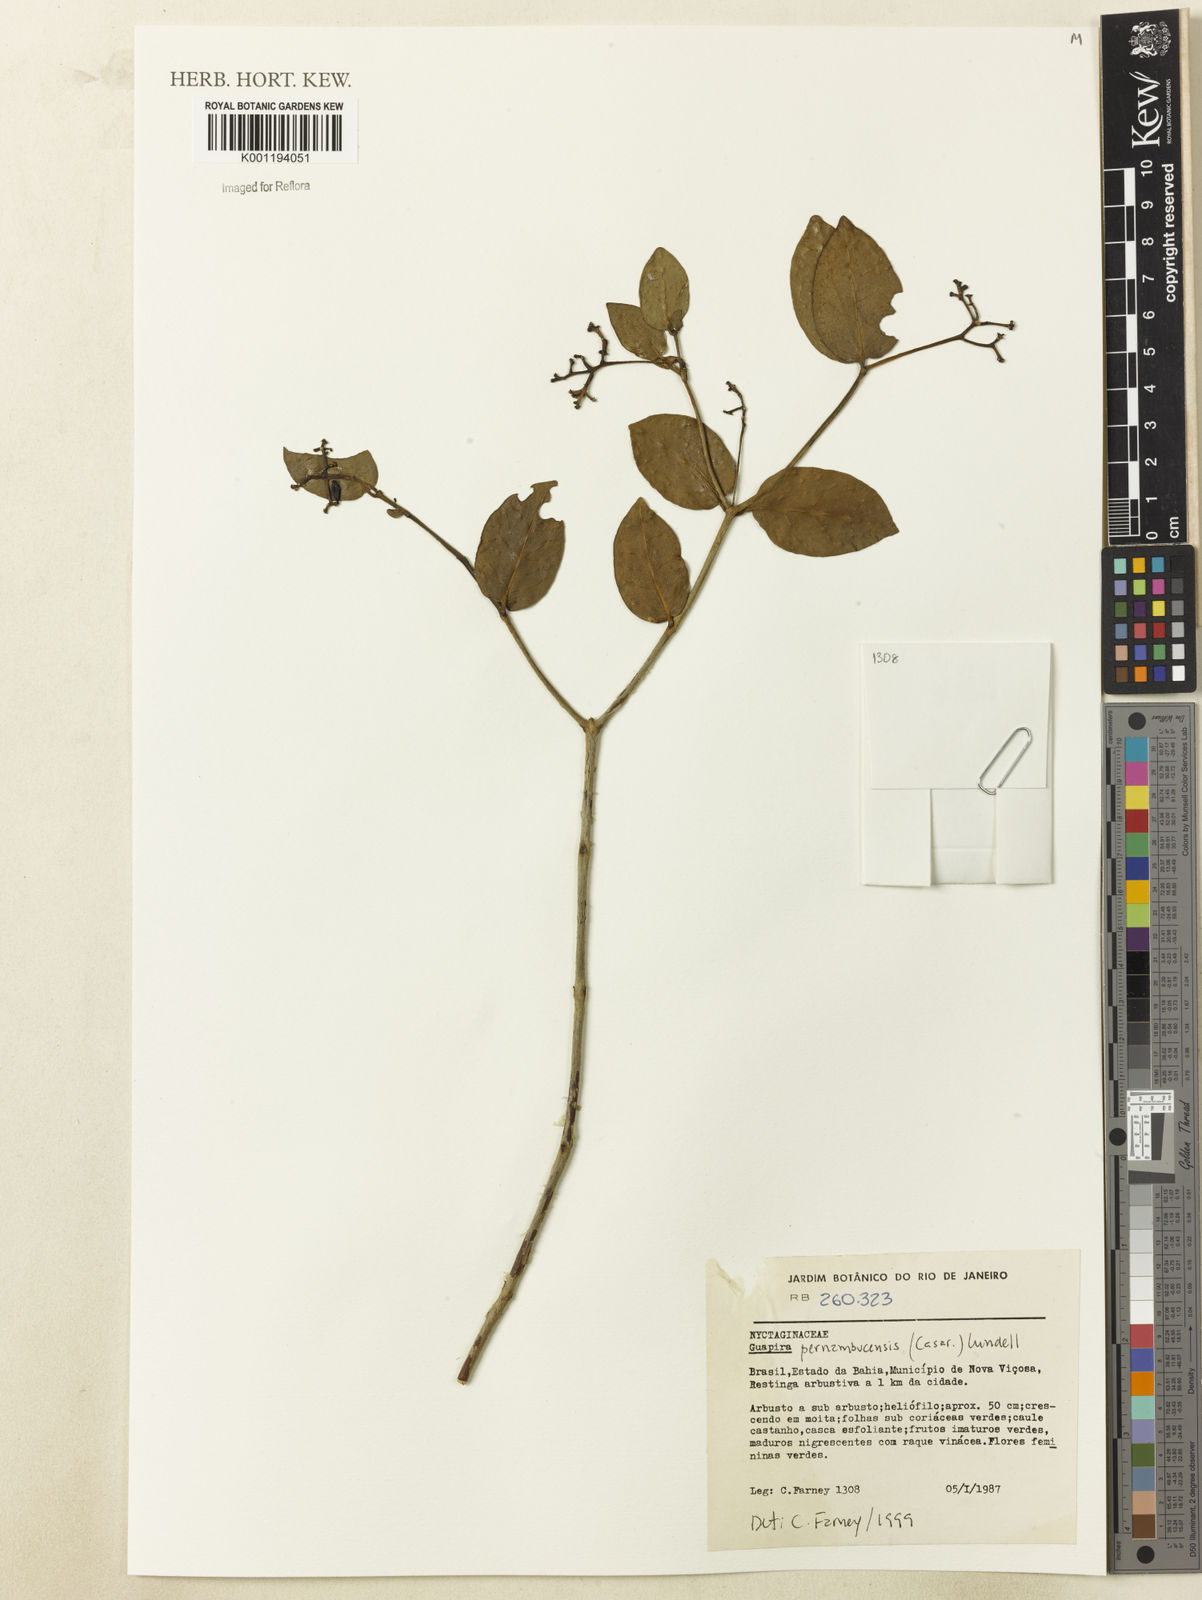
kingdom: Plantae
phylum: Tracheophyta
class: Magnoliopsida
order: Caryophyllales
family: Nyctaginaceae
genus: Guapira
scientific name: Guapira pernambucensis
